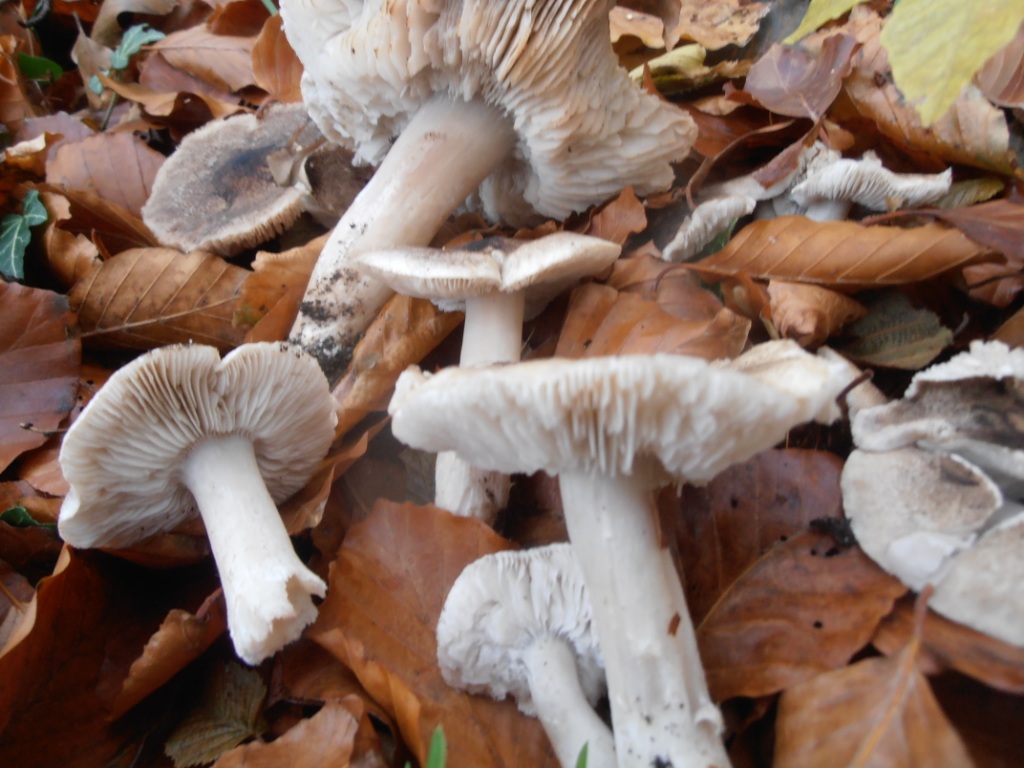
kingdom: Fungi
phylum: Basidiomycota
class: Agaricomycetes
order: Agaricales
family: Tricholomataceae
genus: Tricholoma
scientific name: Tricholoma orirubens
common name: rødbladet ridderhat
